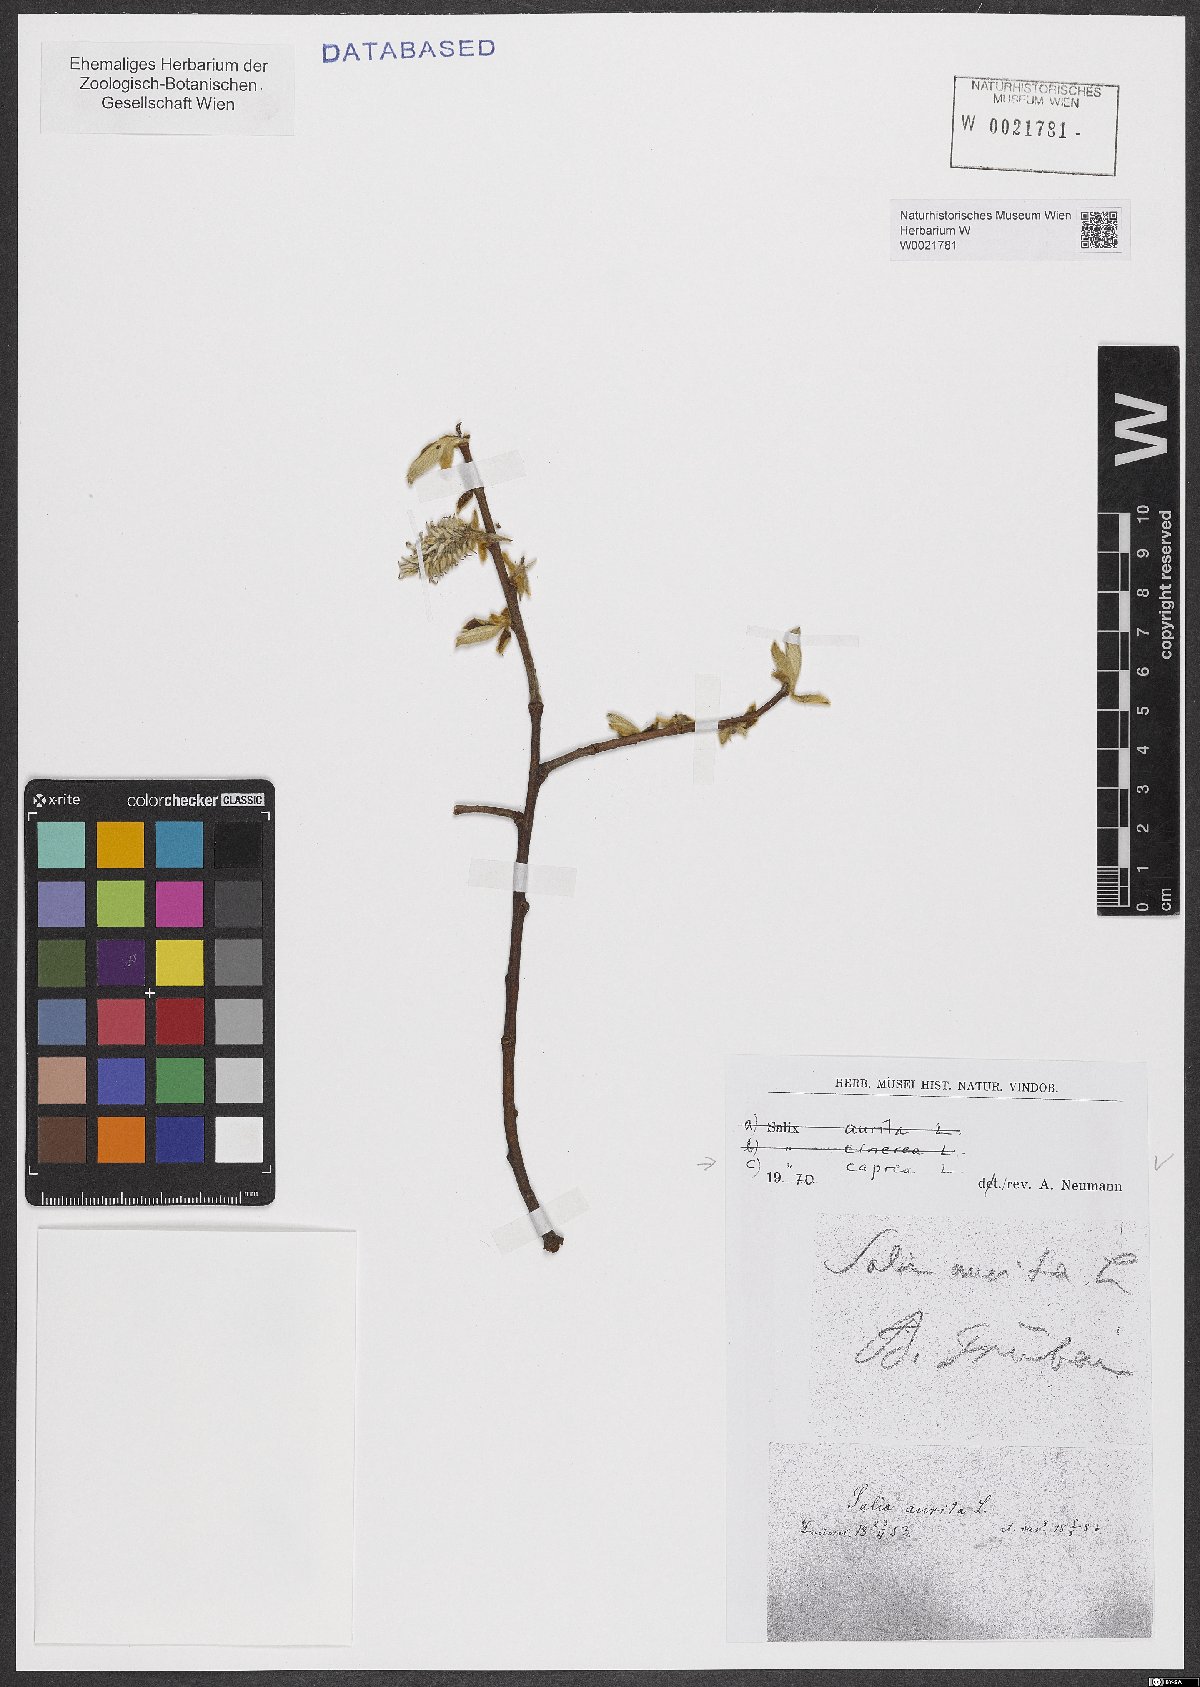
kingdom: Plantae
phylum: Tracheophyta
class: Magnoliopsida
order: Malpighiales
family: Salicaceae
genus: Salix
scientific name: Salix caprea
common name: Goat willow
